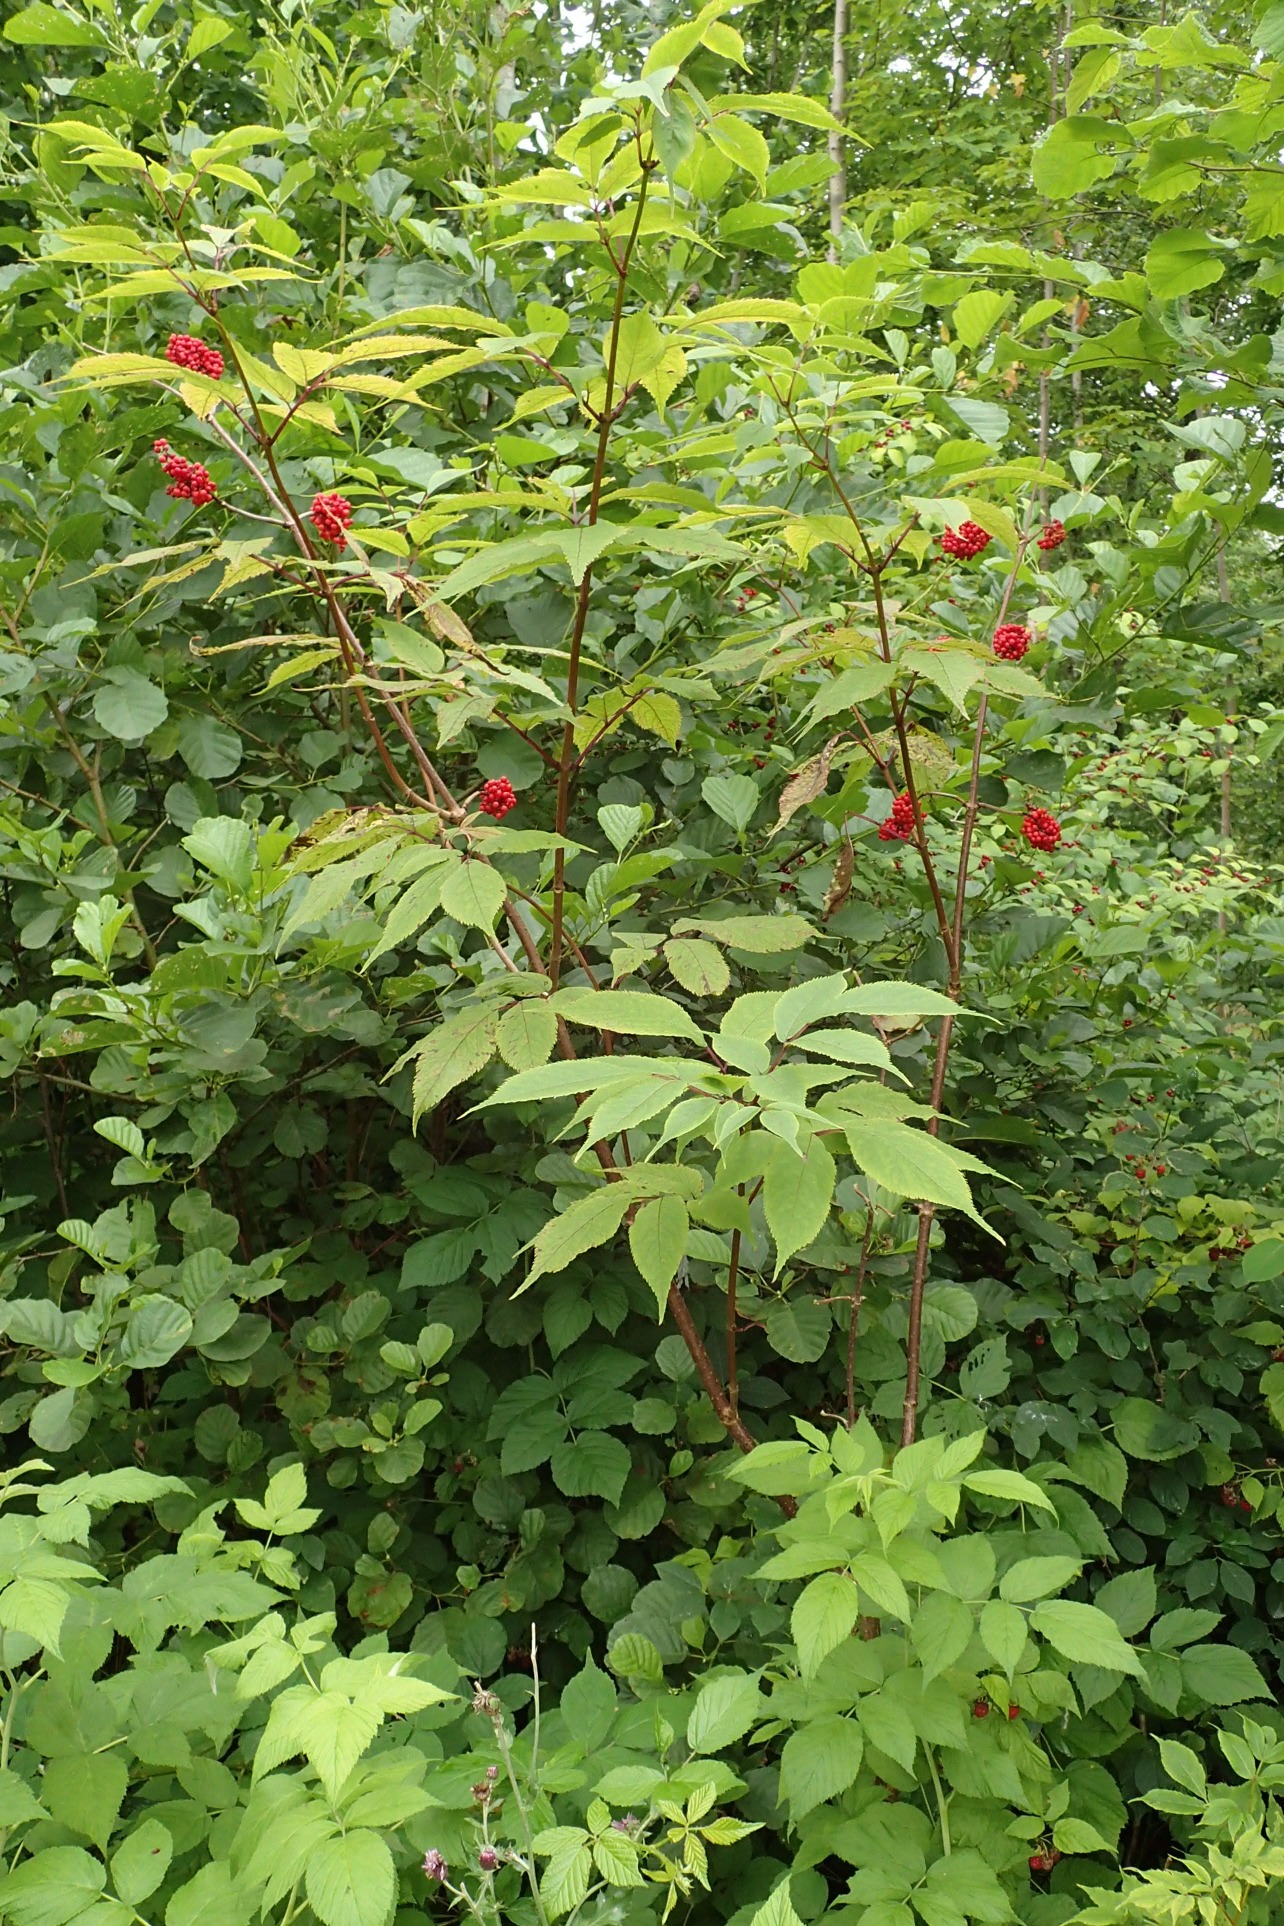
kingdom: Plantae
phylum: Tracheophyta
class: Magnoliopsida
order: Dipsacales
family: Viburnaceae
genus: Sambucus
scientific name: Sambucus racemosa
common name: Drue-hyld
